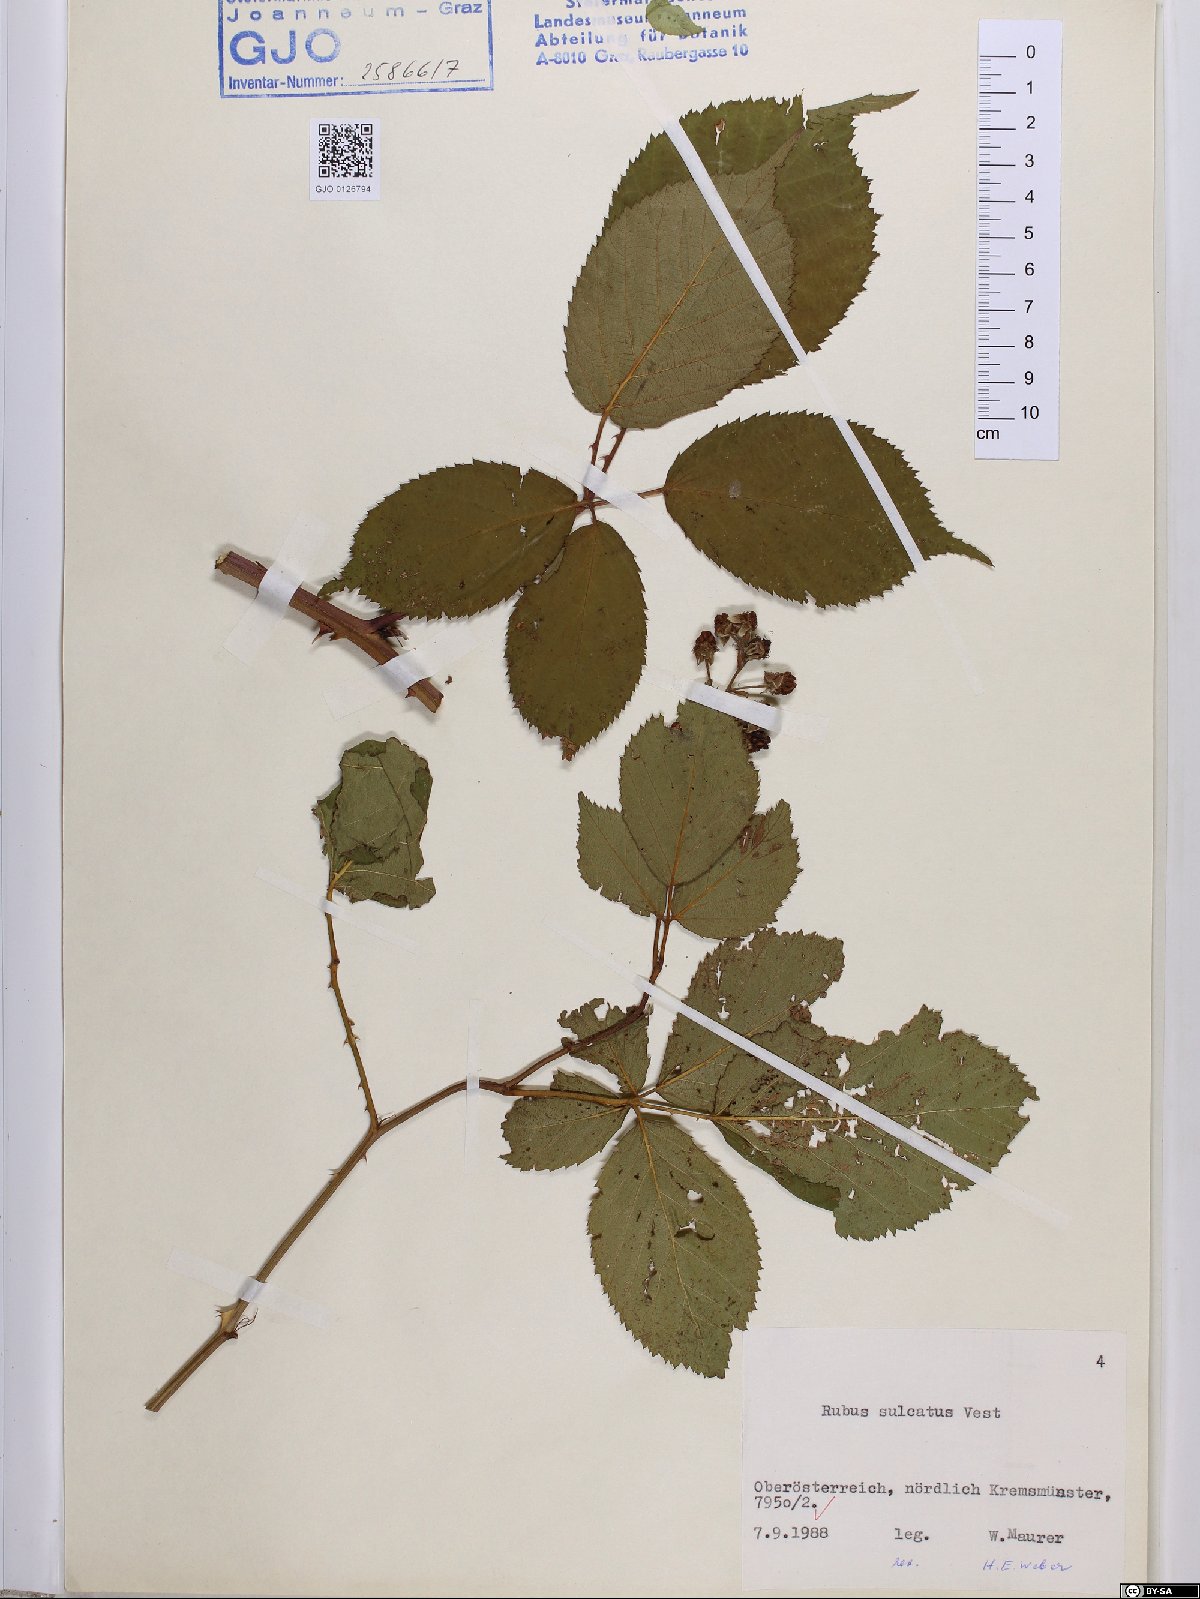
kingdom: Plantae
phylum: Tracheophyta
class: Magnoliopsida
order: Rosales
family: Rosaceae
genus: Rubus
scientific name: Rubus sulcatus
